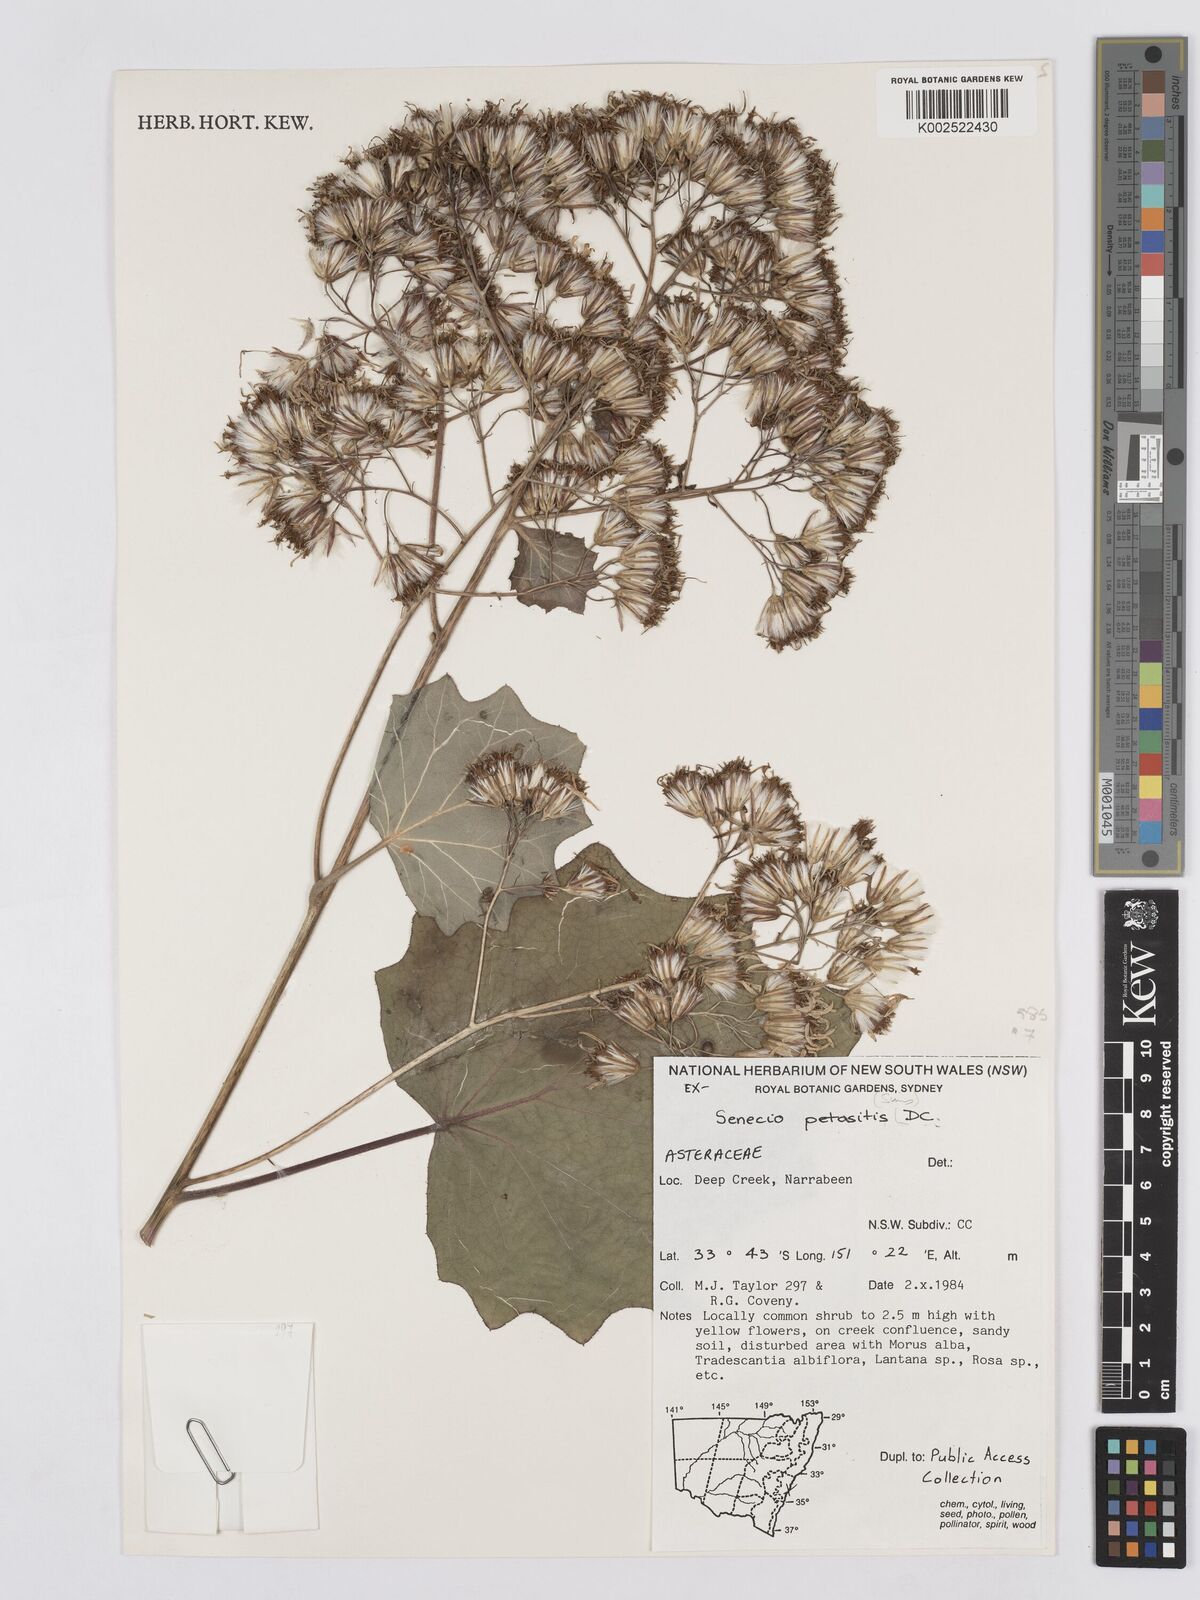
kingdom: Plantae
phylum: Tracheophyta
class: Magnoliopsida
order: Asterales
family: Asteraceae
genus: Roldana
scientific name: Roldana petasitis
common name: California-geranium
